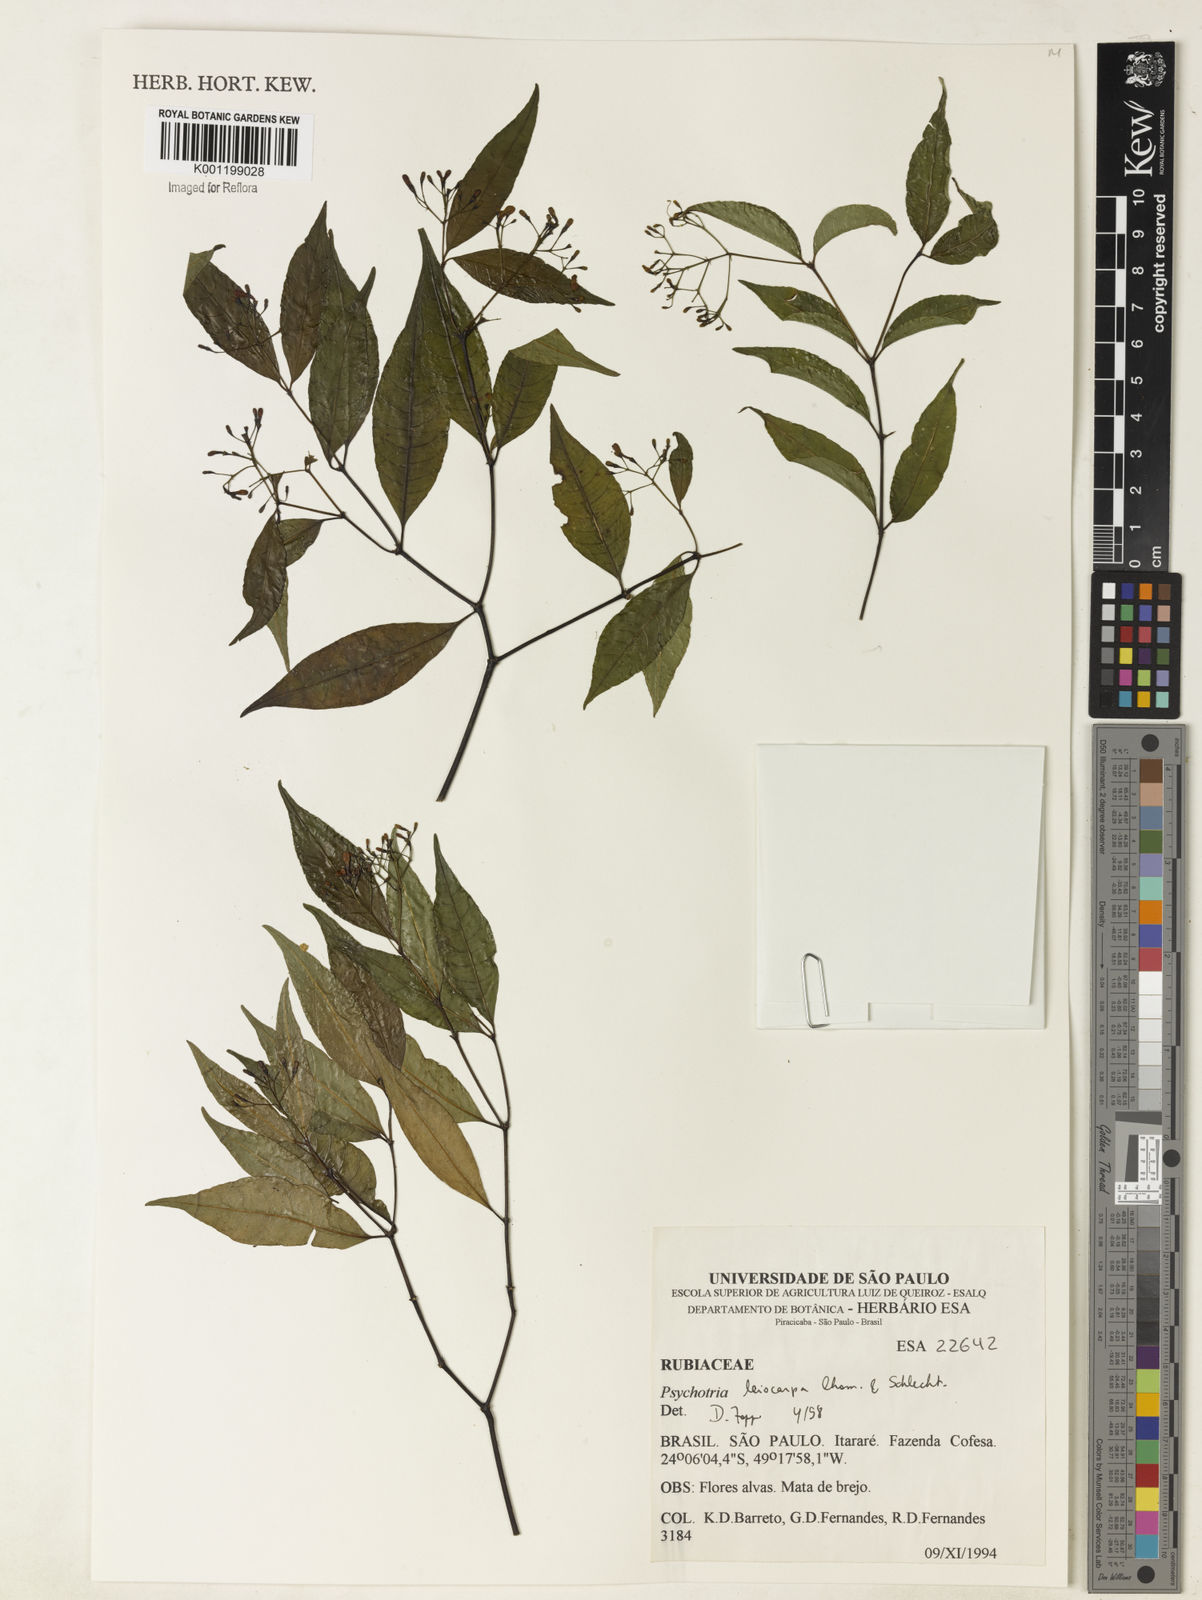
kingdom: Plantae
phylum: Tracheophyta
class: Magnoliopsida
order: Gentianales
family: Rubiaceae
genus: Psychotria
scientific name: Psychotria leiocarpa
